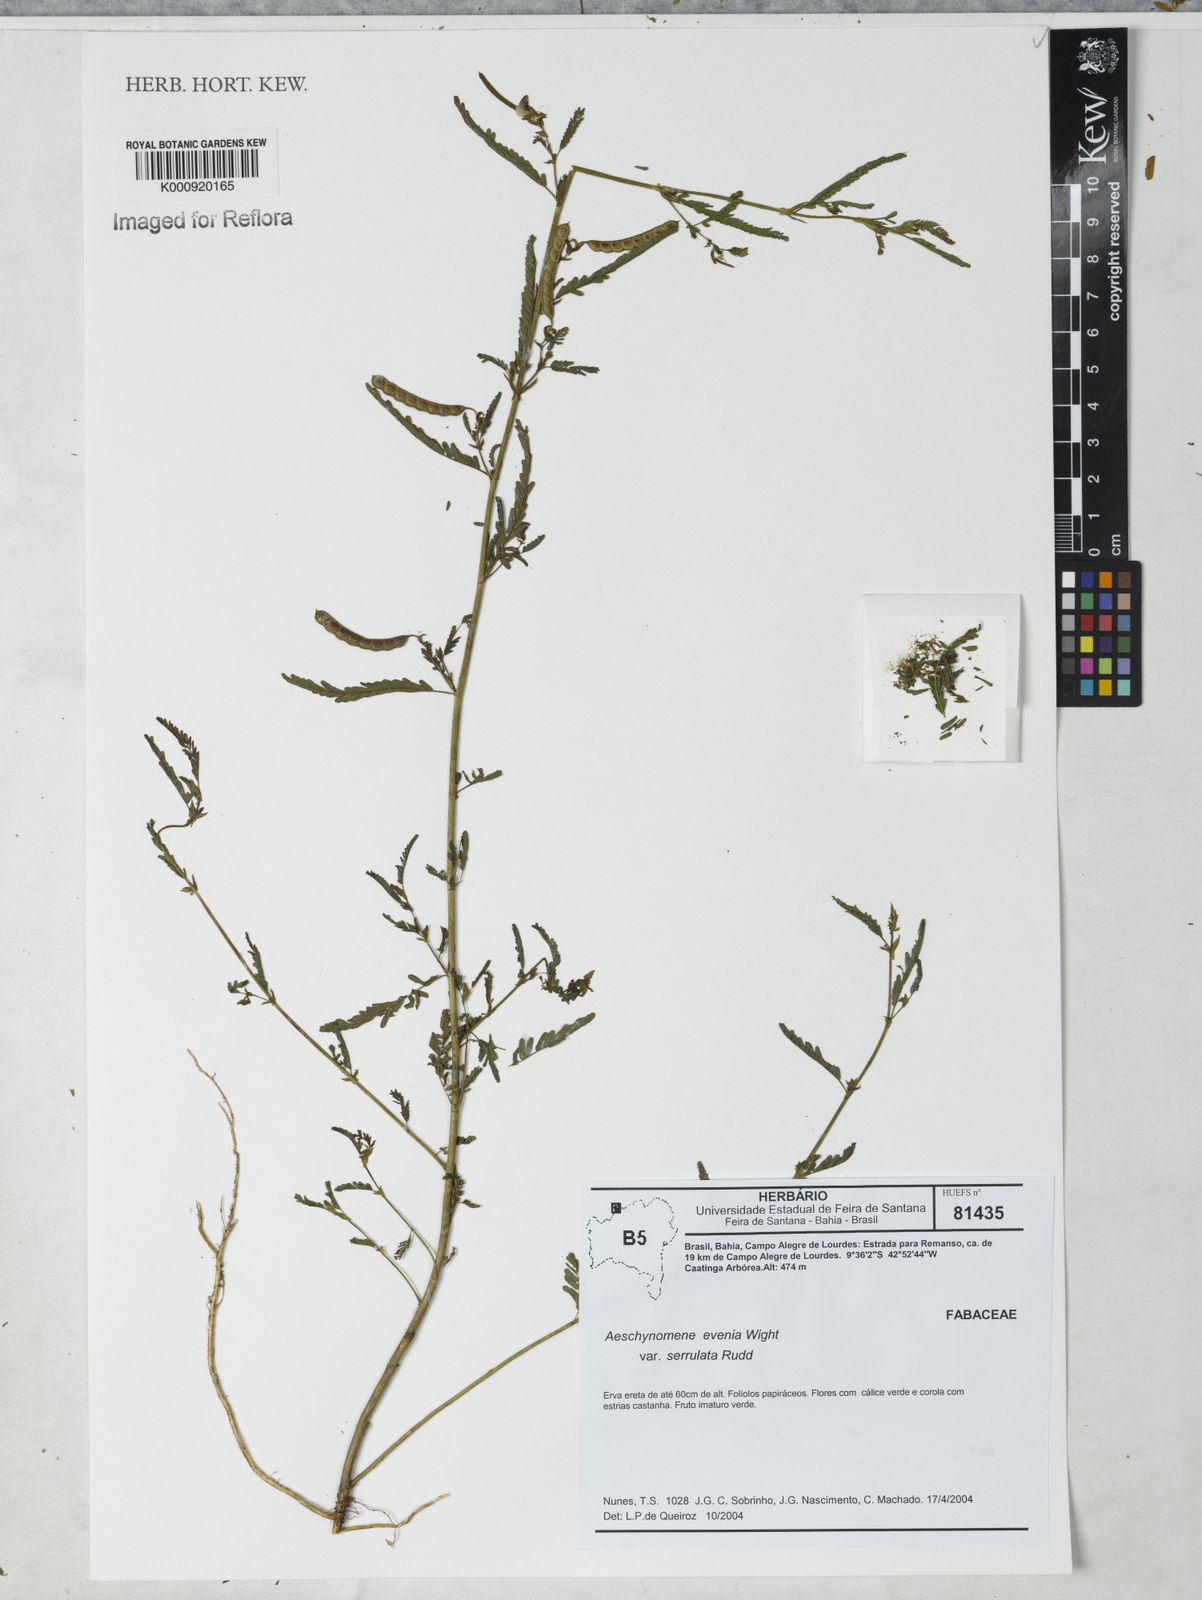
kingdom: Plantae
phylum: Tracheophyta
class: Magnoliopsida
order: Fabales
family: Fabaceae
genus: Aeschynomene
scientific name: Aeschynomene evenia
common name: Shrubby jointvetch
